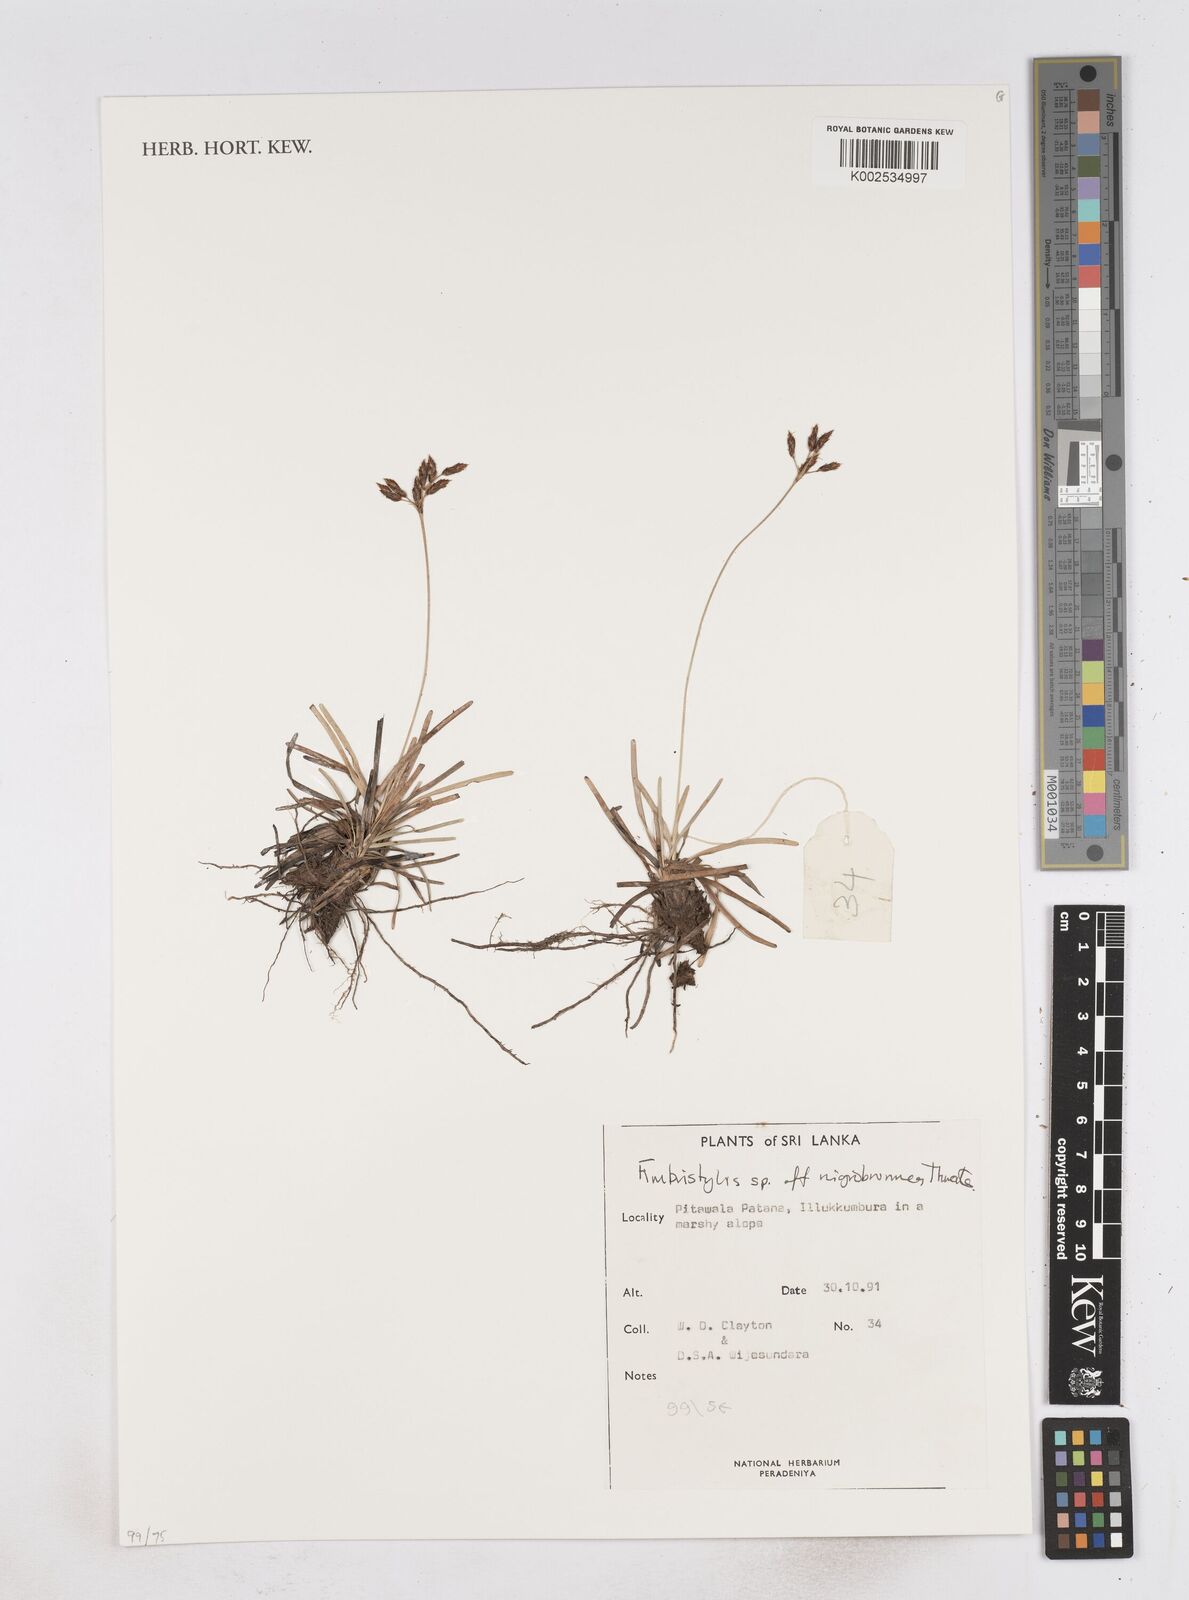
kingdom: Plantae
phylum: Tracheophyta
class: Liliopsida
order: Poales
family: Cyperaceae
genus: Fimbristylis
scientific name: Fimbristylis nigrobrunnea
